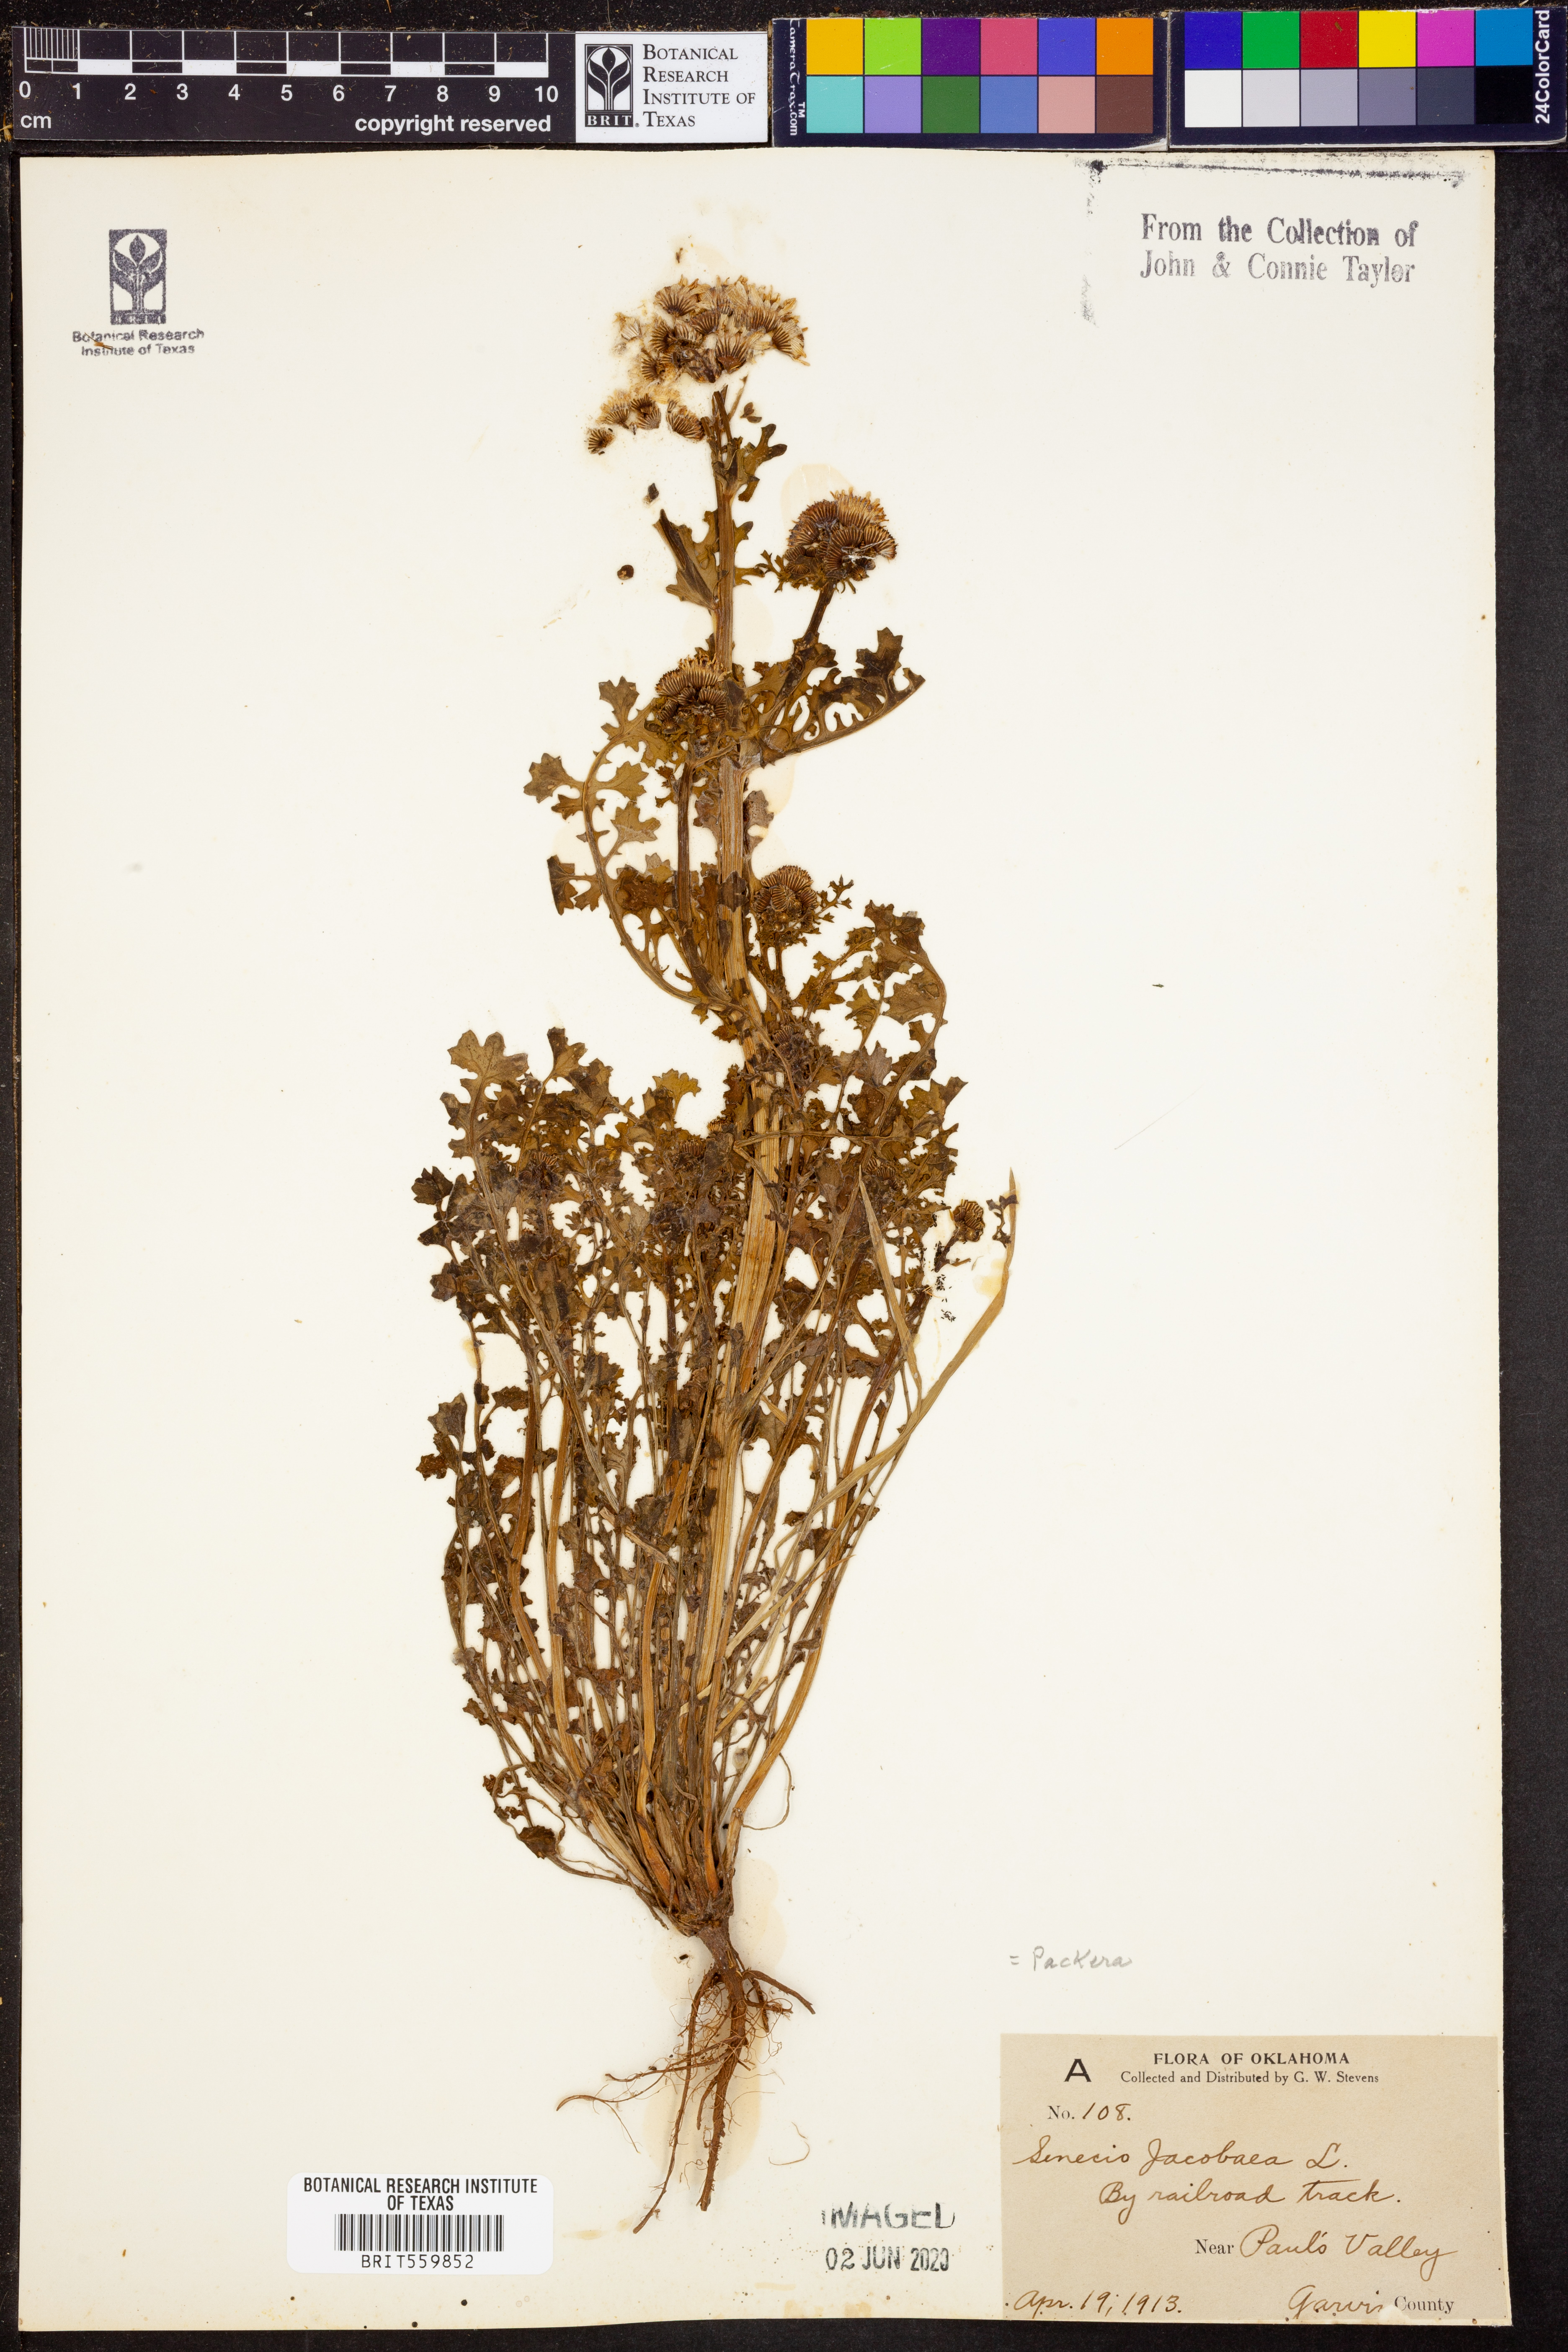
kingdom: Plantae
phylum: Tracheophyta
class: Magnoliopsida
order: Asterales
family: Asteraceae
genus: Jacobaea
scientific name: Jacobaea vulgaris
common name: Stinking willie
